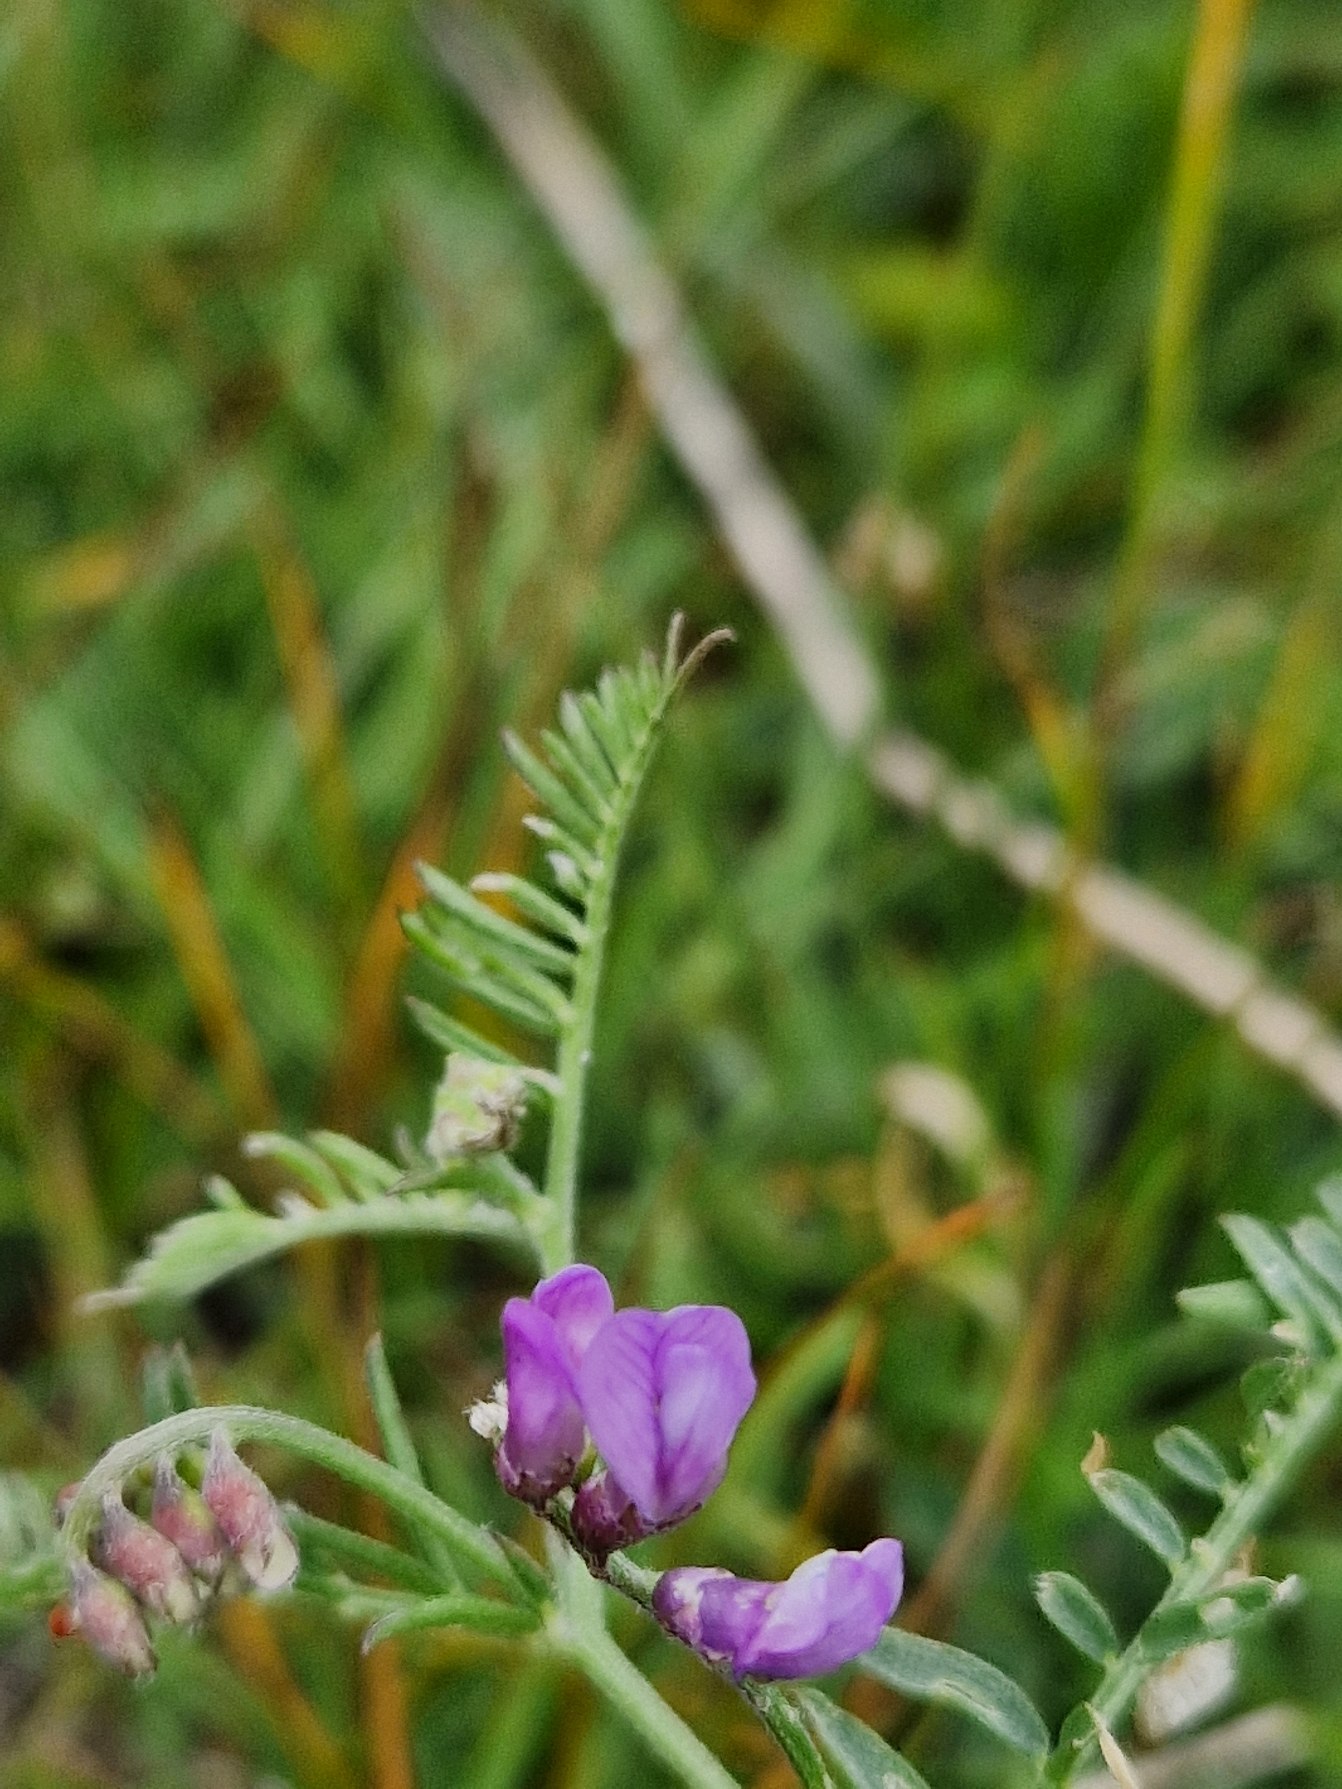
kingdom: Plantae
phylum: Tracheophyta
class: Magnoliopsida
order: Fabales
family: Fabaceae
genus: Vicia
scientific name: Vicia cracca
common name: Muse-vikke
